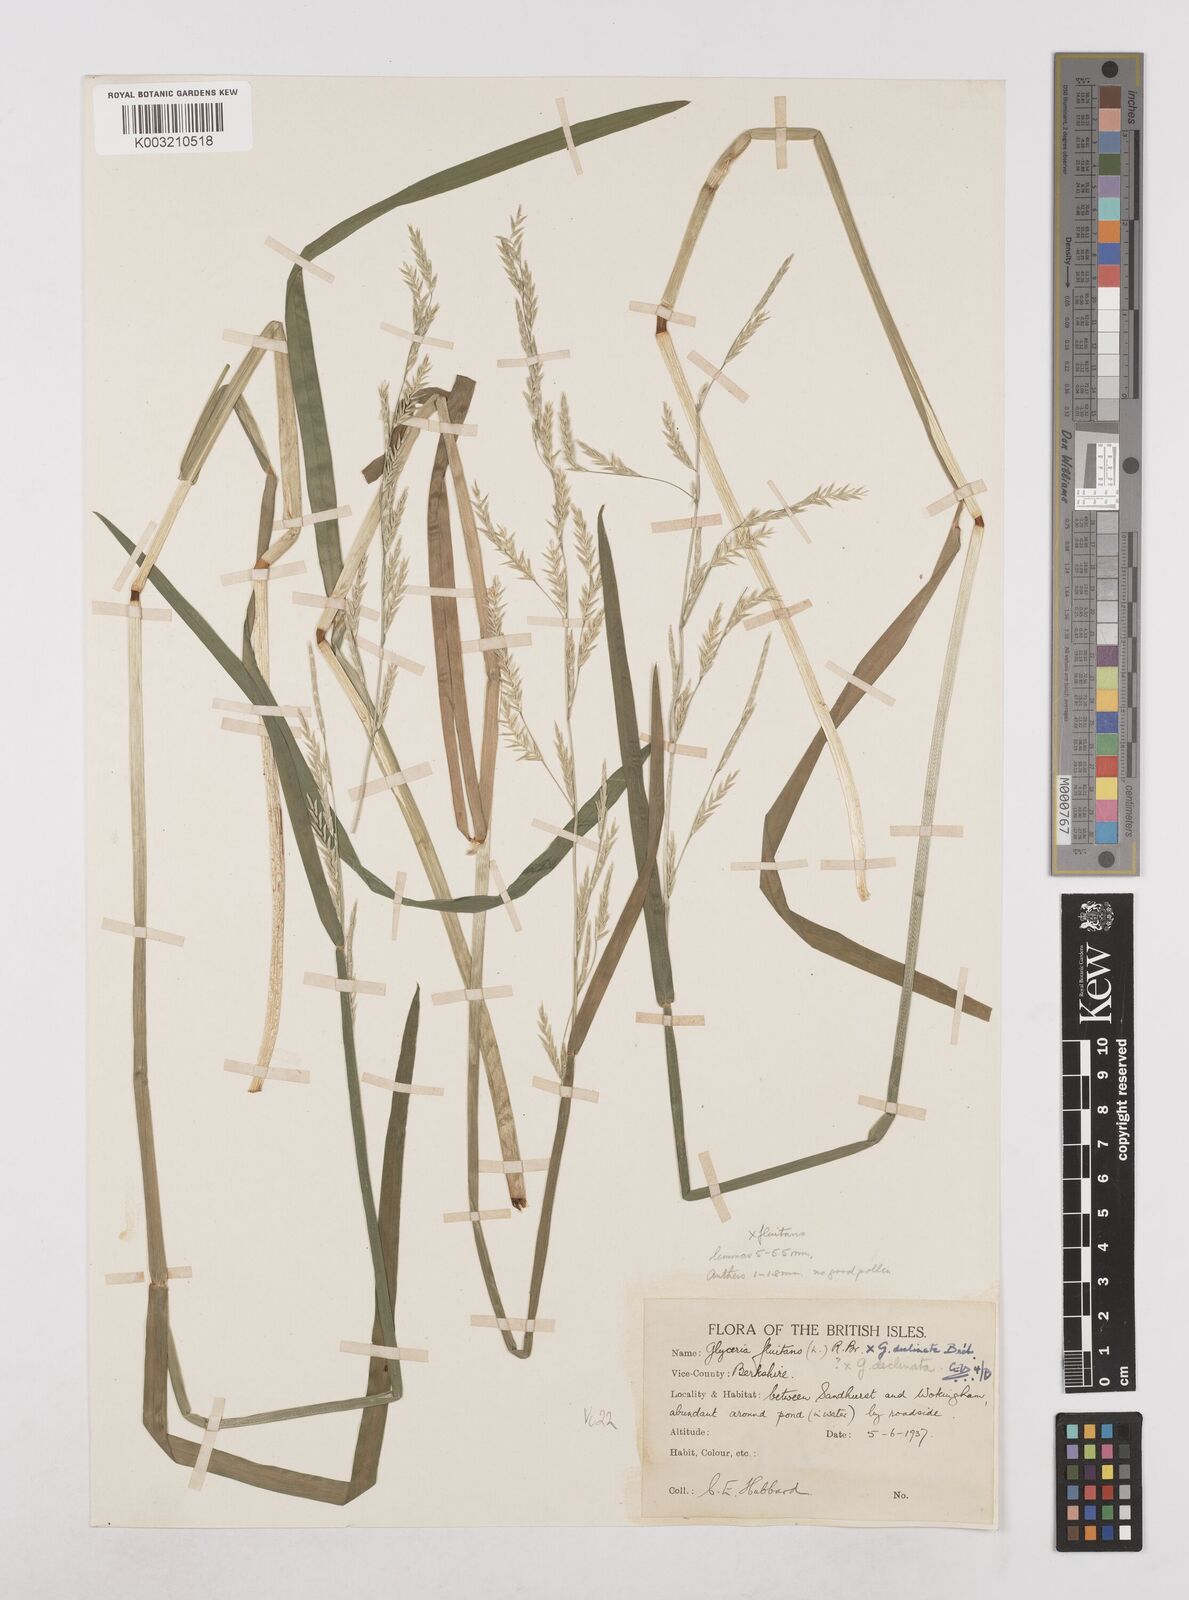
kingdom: Plantae
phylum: Tracheophyta
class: Liliopsida
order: Poales
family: Poaceae
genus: Glyceria
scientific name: Glyceria declinata
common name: Small sweet-grass
